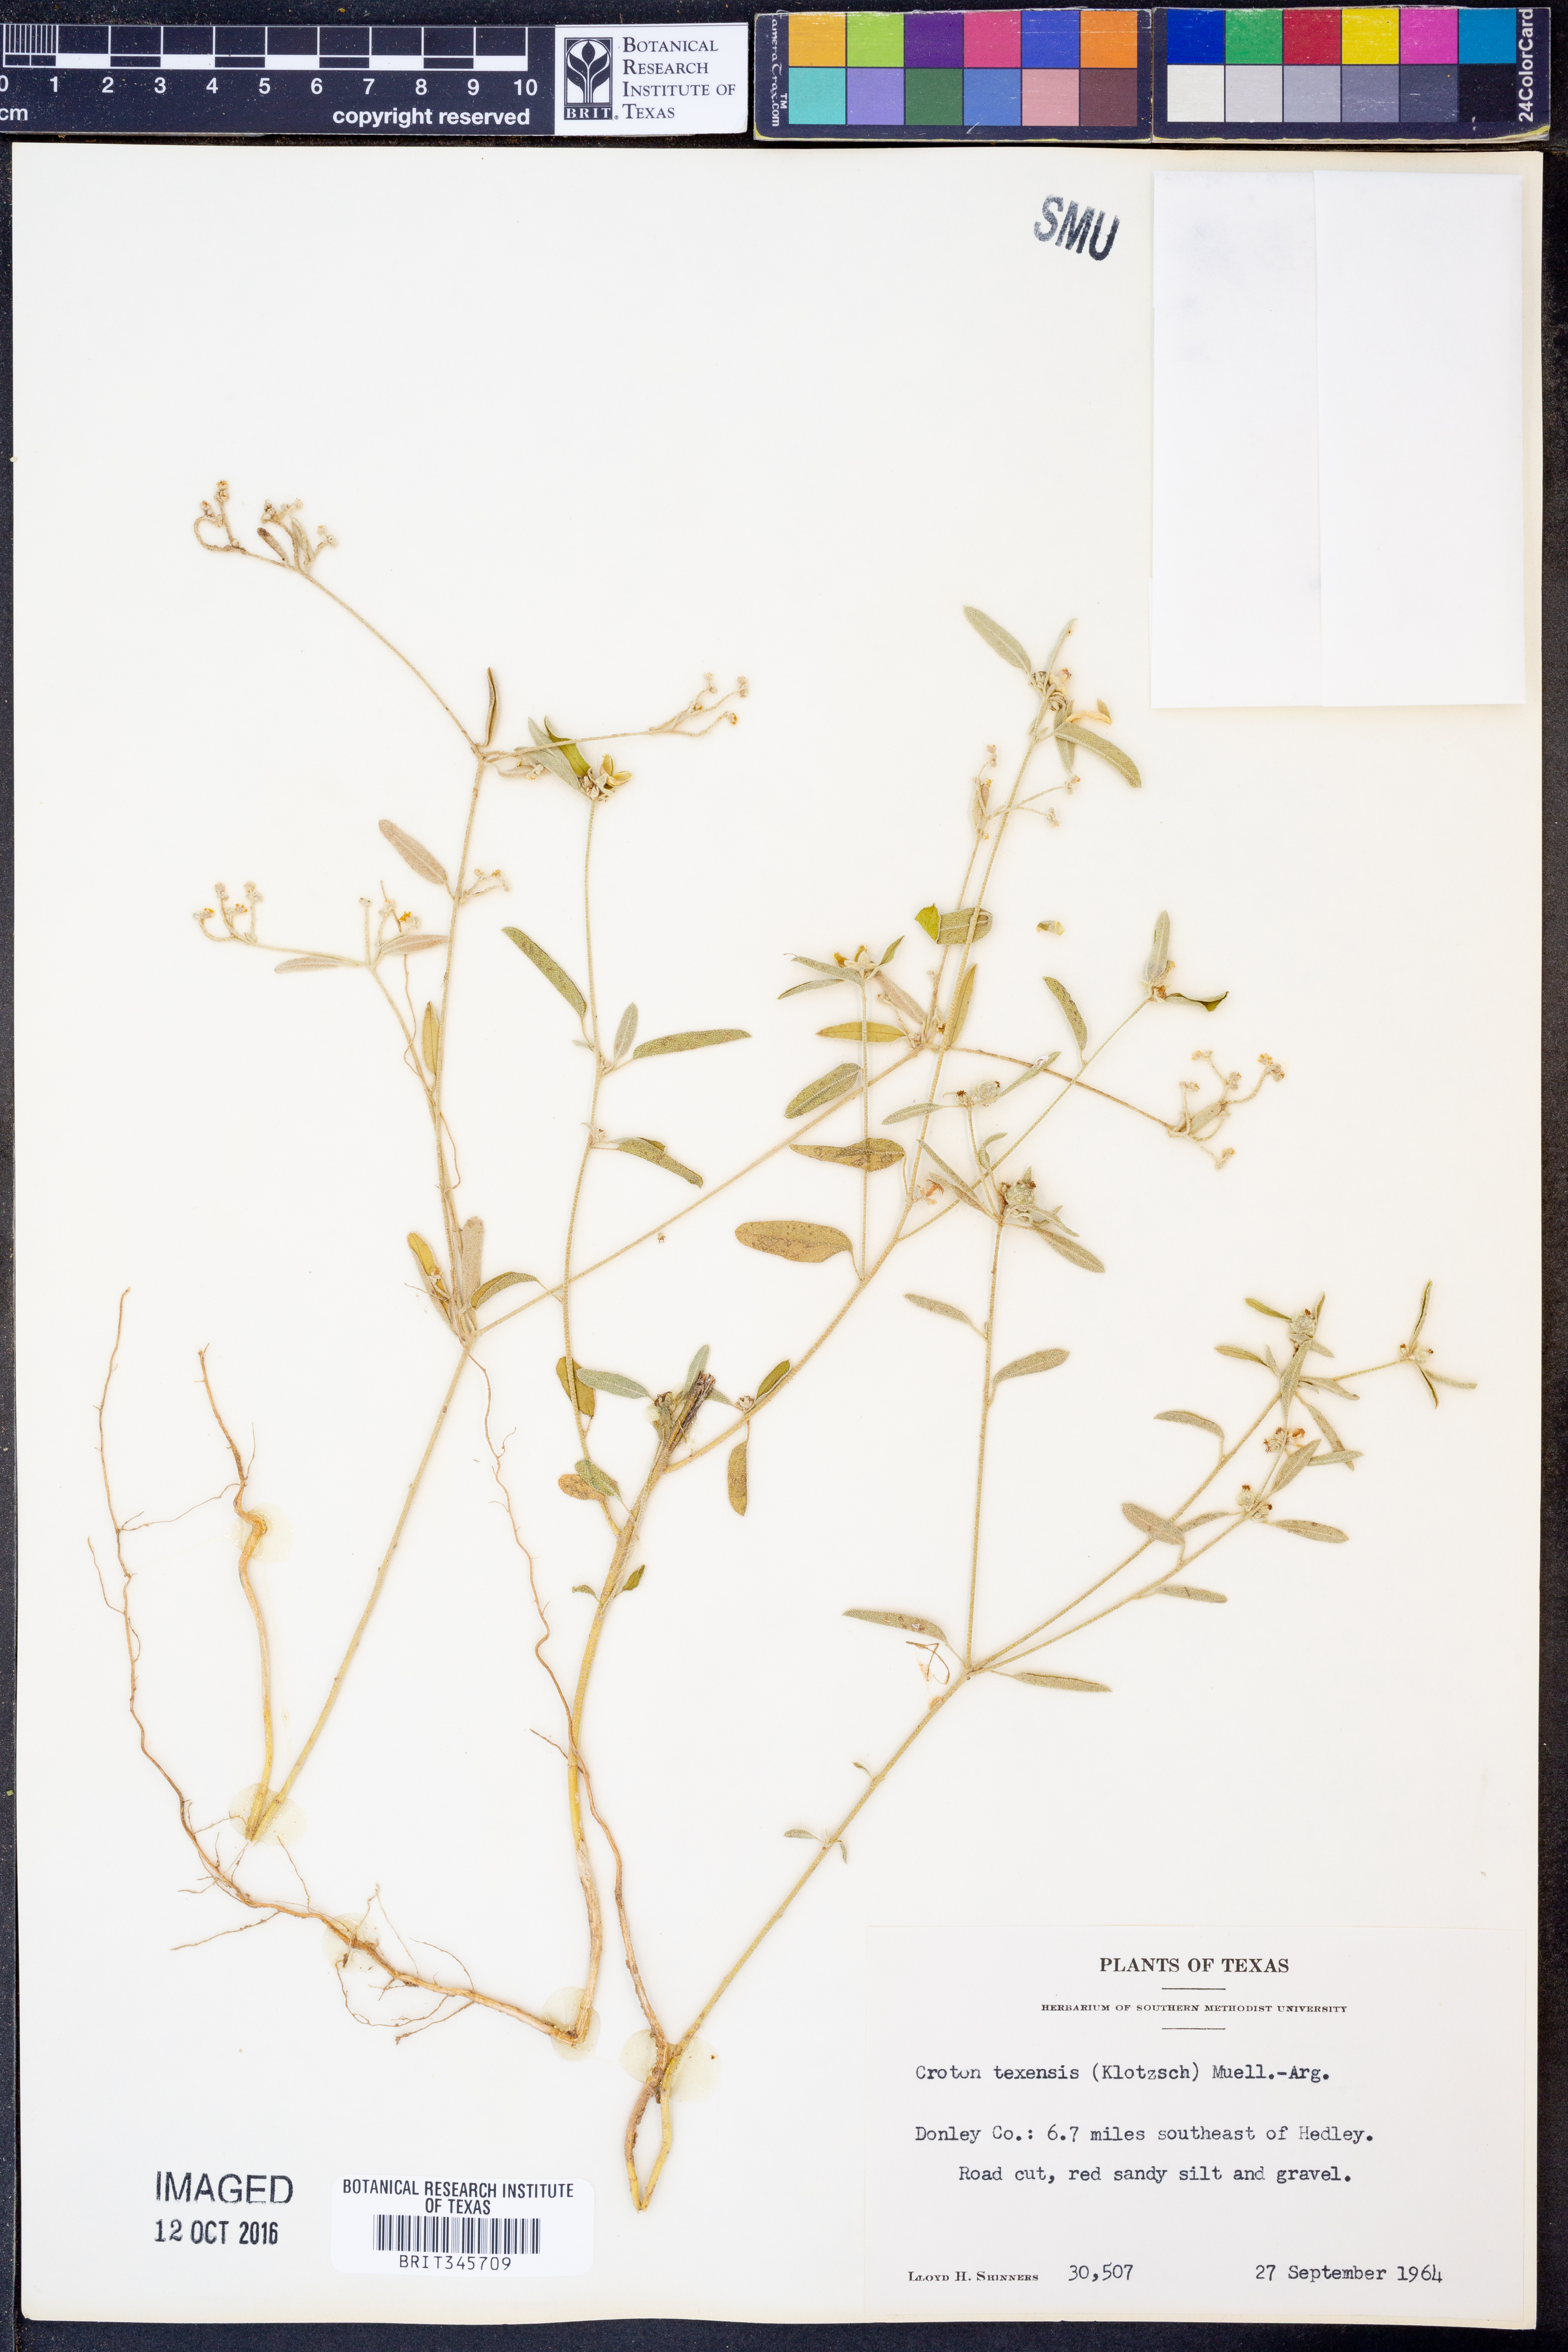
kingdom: Plantae
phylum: Tracheophyta
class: Magnoliopsida
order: Malpighiales
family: Euphorbiaceae
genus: Croton
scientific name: Croton texensis
